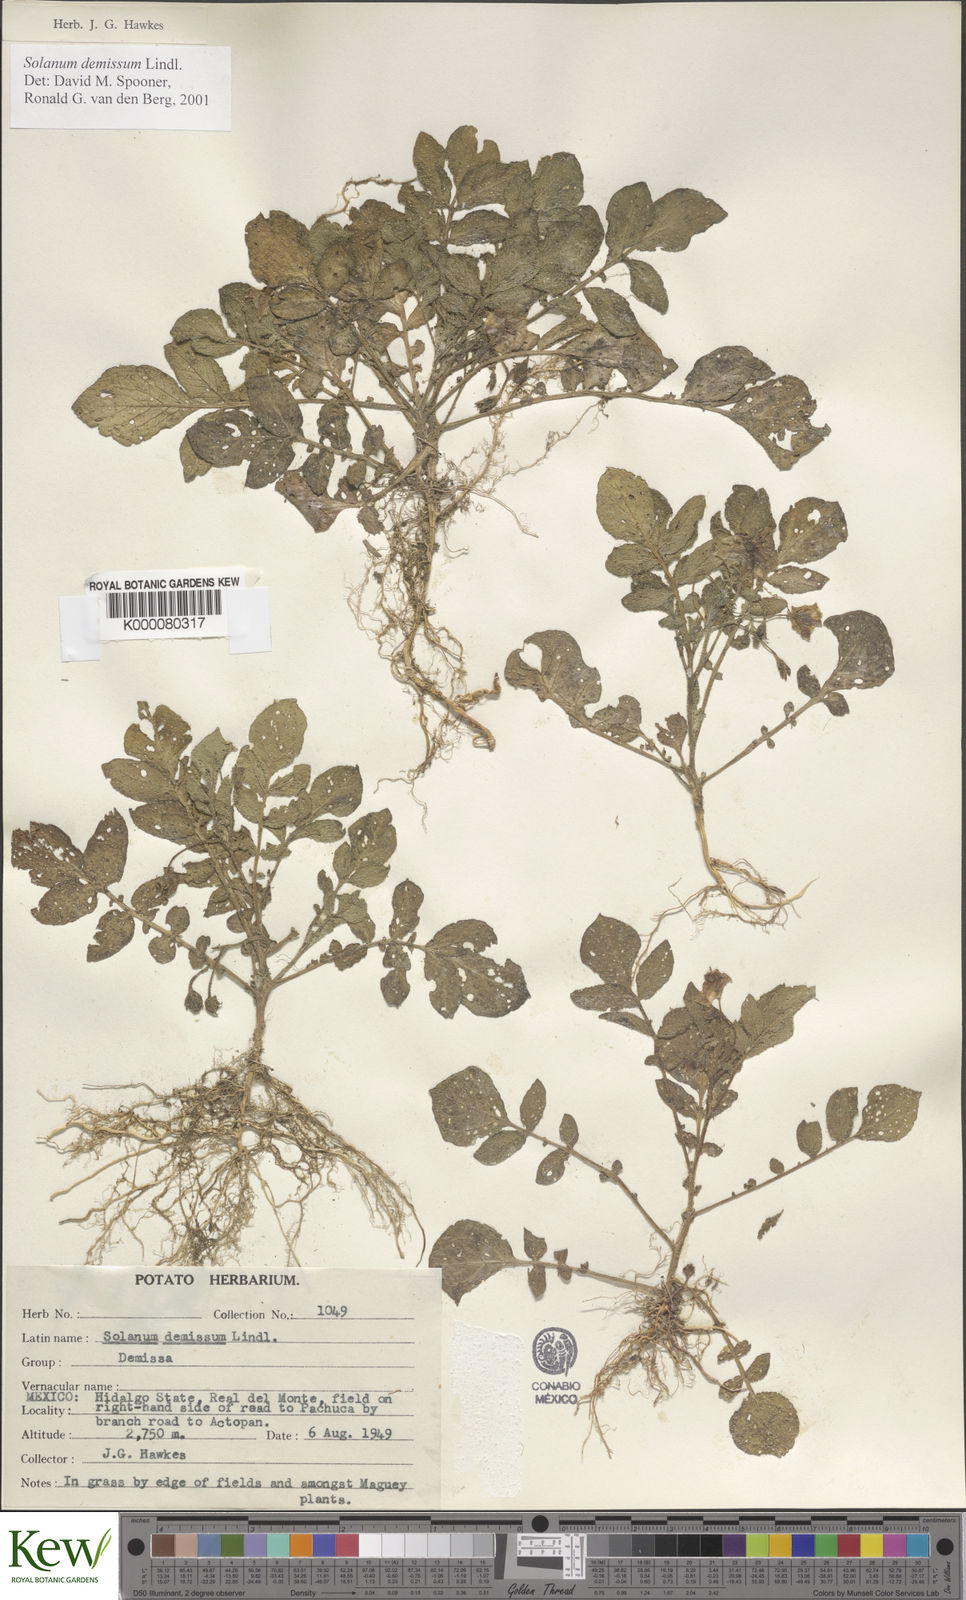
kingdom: Plantae
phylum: Tracheophyta
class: Magnoliopsida
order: Solanales
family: Solanaceae
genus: Solanum
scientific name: Solanum demissum
